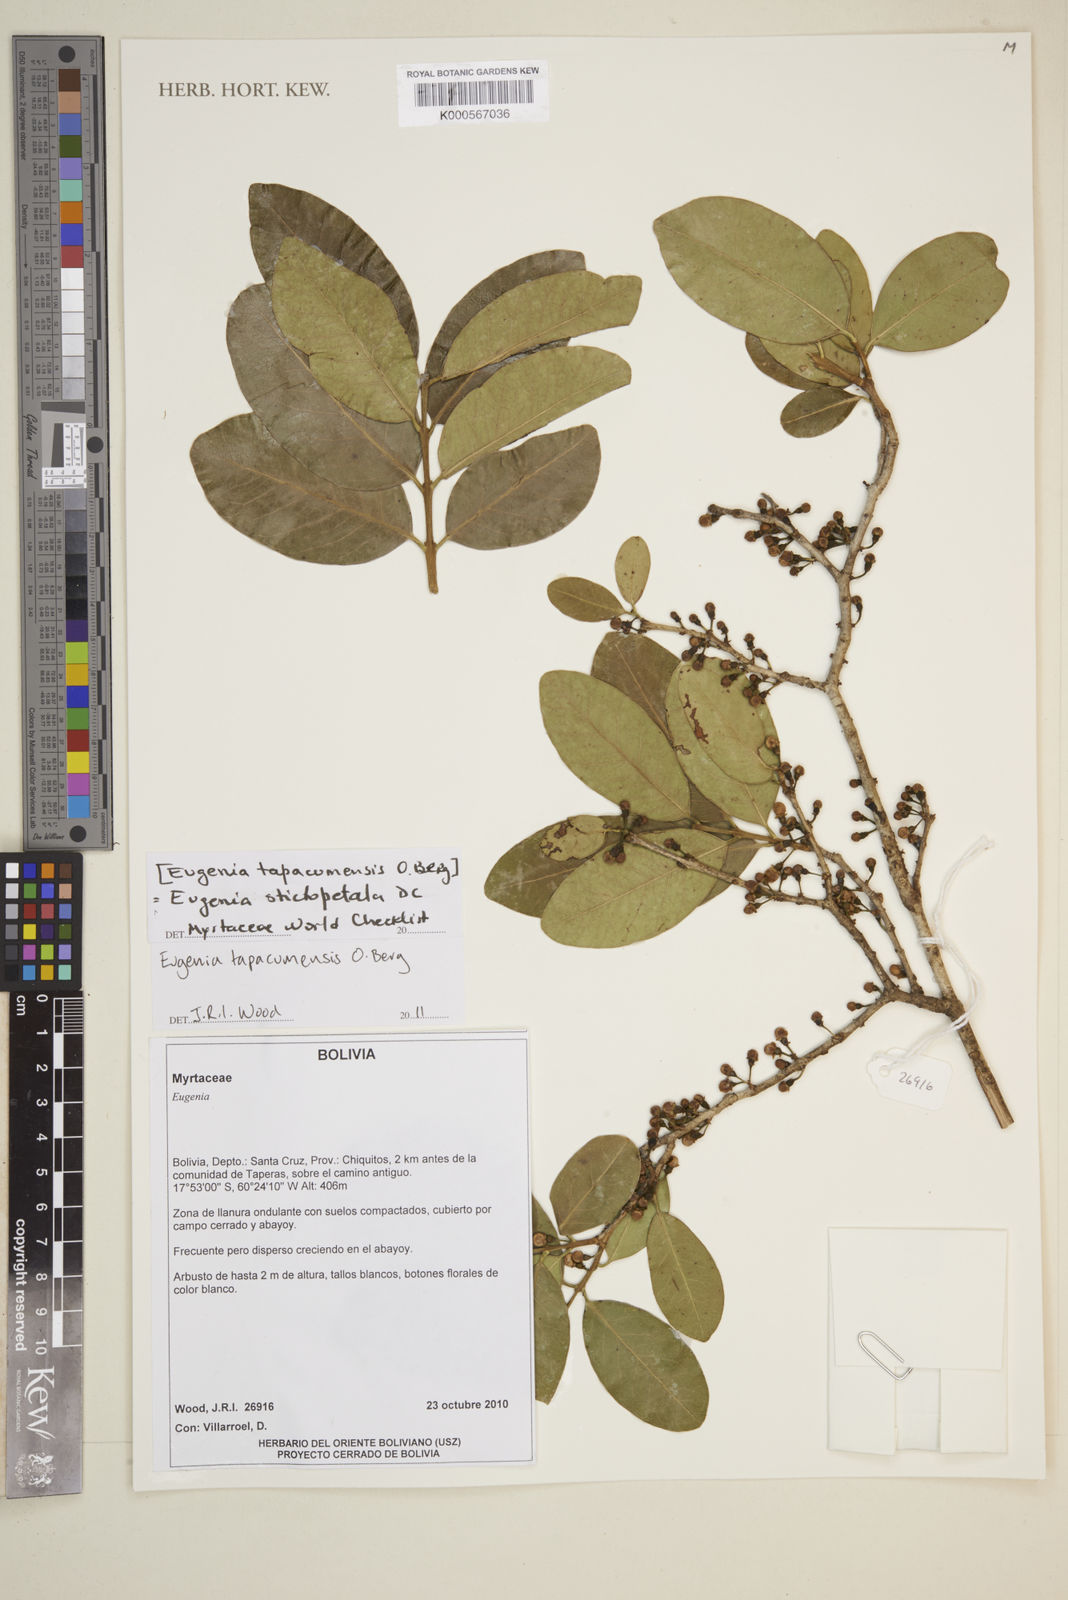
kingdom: Plantae
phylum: Tracheophyta
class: Magnoliopsida
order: Myrtales
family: Myrtaceae
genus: Eugenia
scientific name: Eugenia tapacumensis
